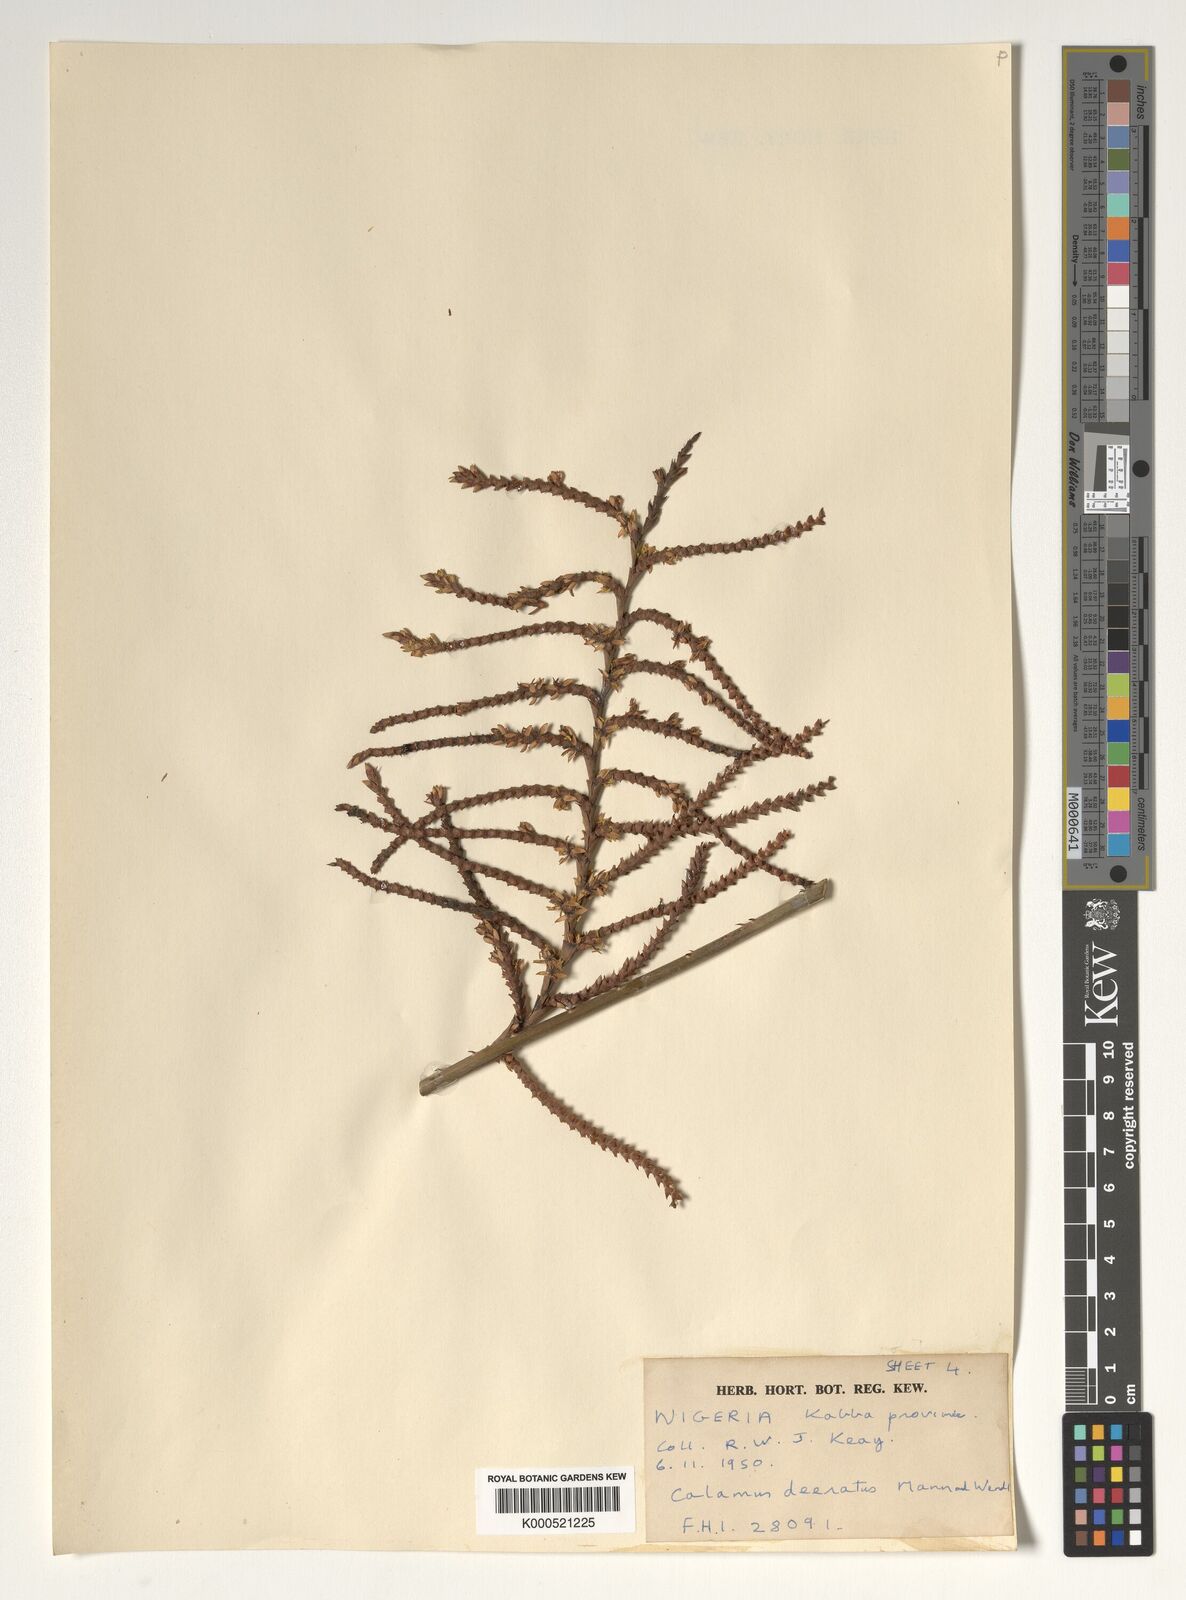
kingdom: Plantae
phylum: Tracheophyta
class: Liliopsida
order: Arecales
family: Arecaceae
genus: Calamus
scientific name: Calamus deerratus
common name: Rattan
